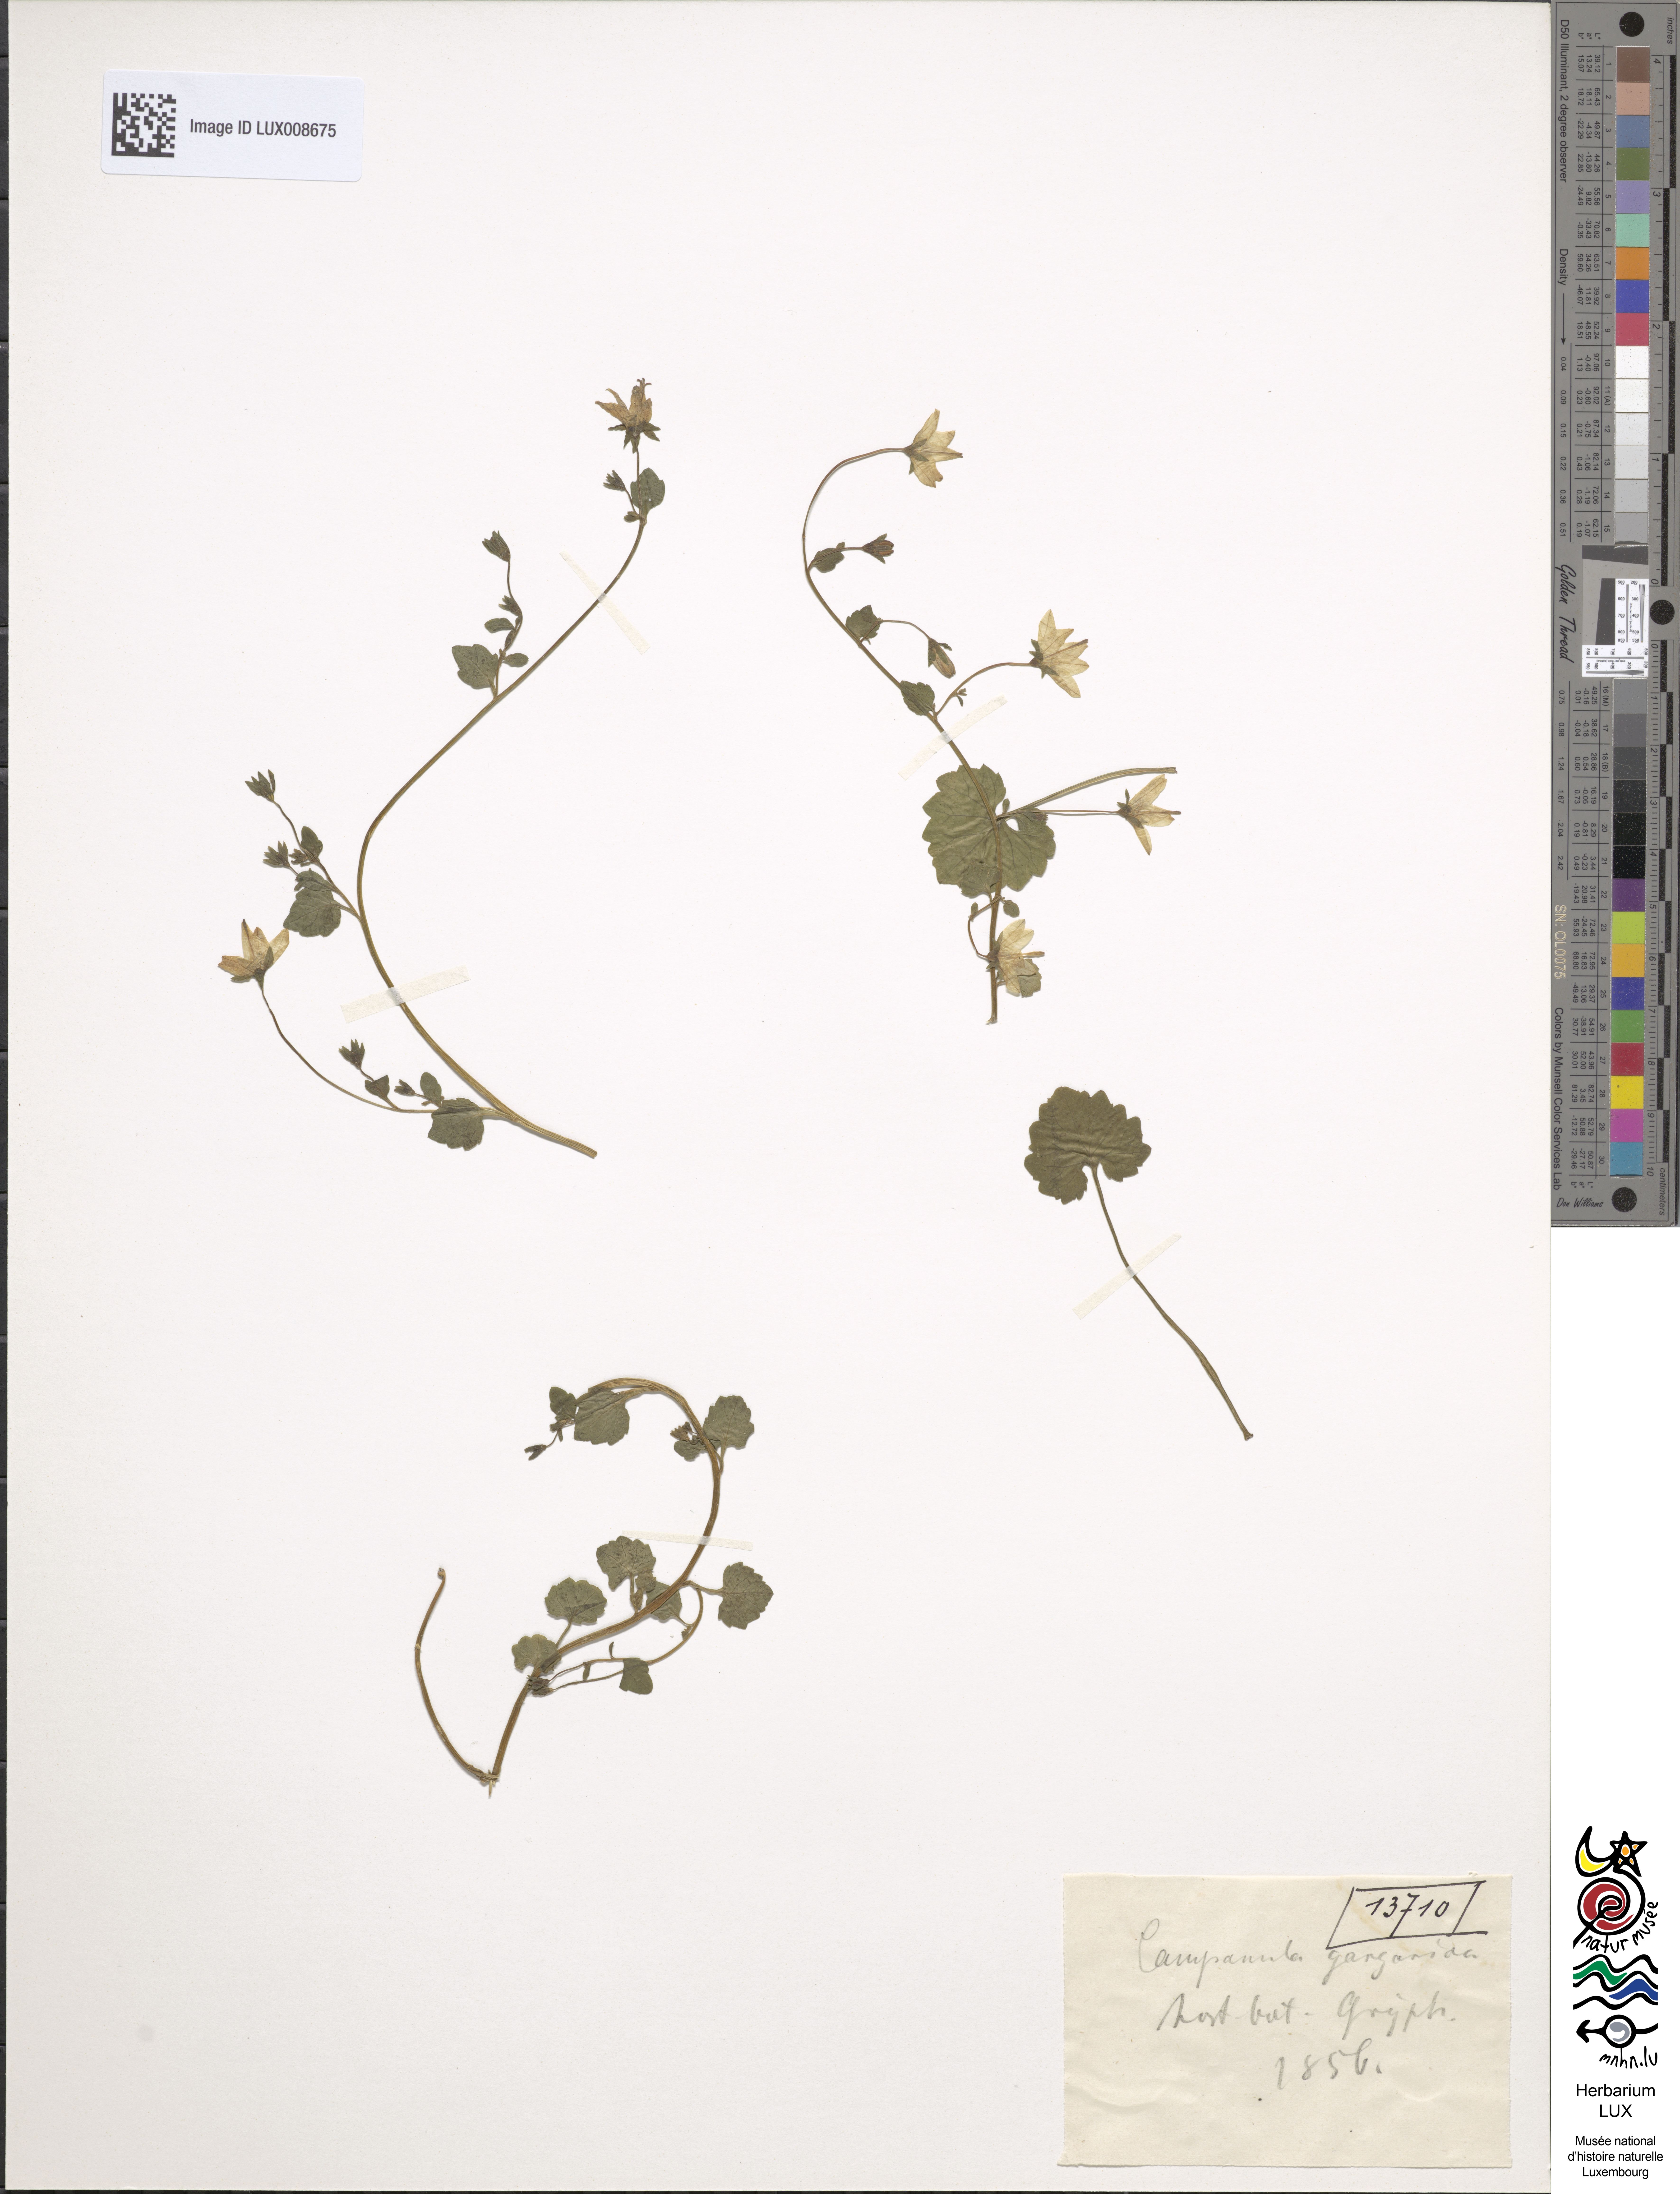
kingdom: Plantae
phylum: Tracheophyta
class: Magnoliopsida
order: Asterales
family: Campanulaceae
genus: Campanula
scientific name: Campanula garganica
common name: Adriatic bellflower
